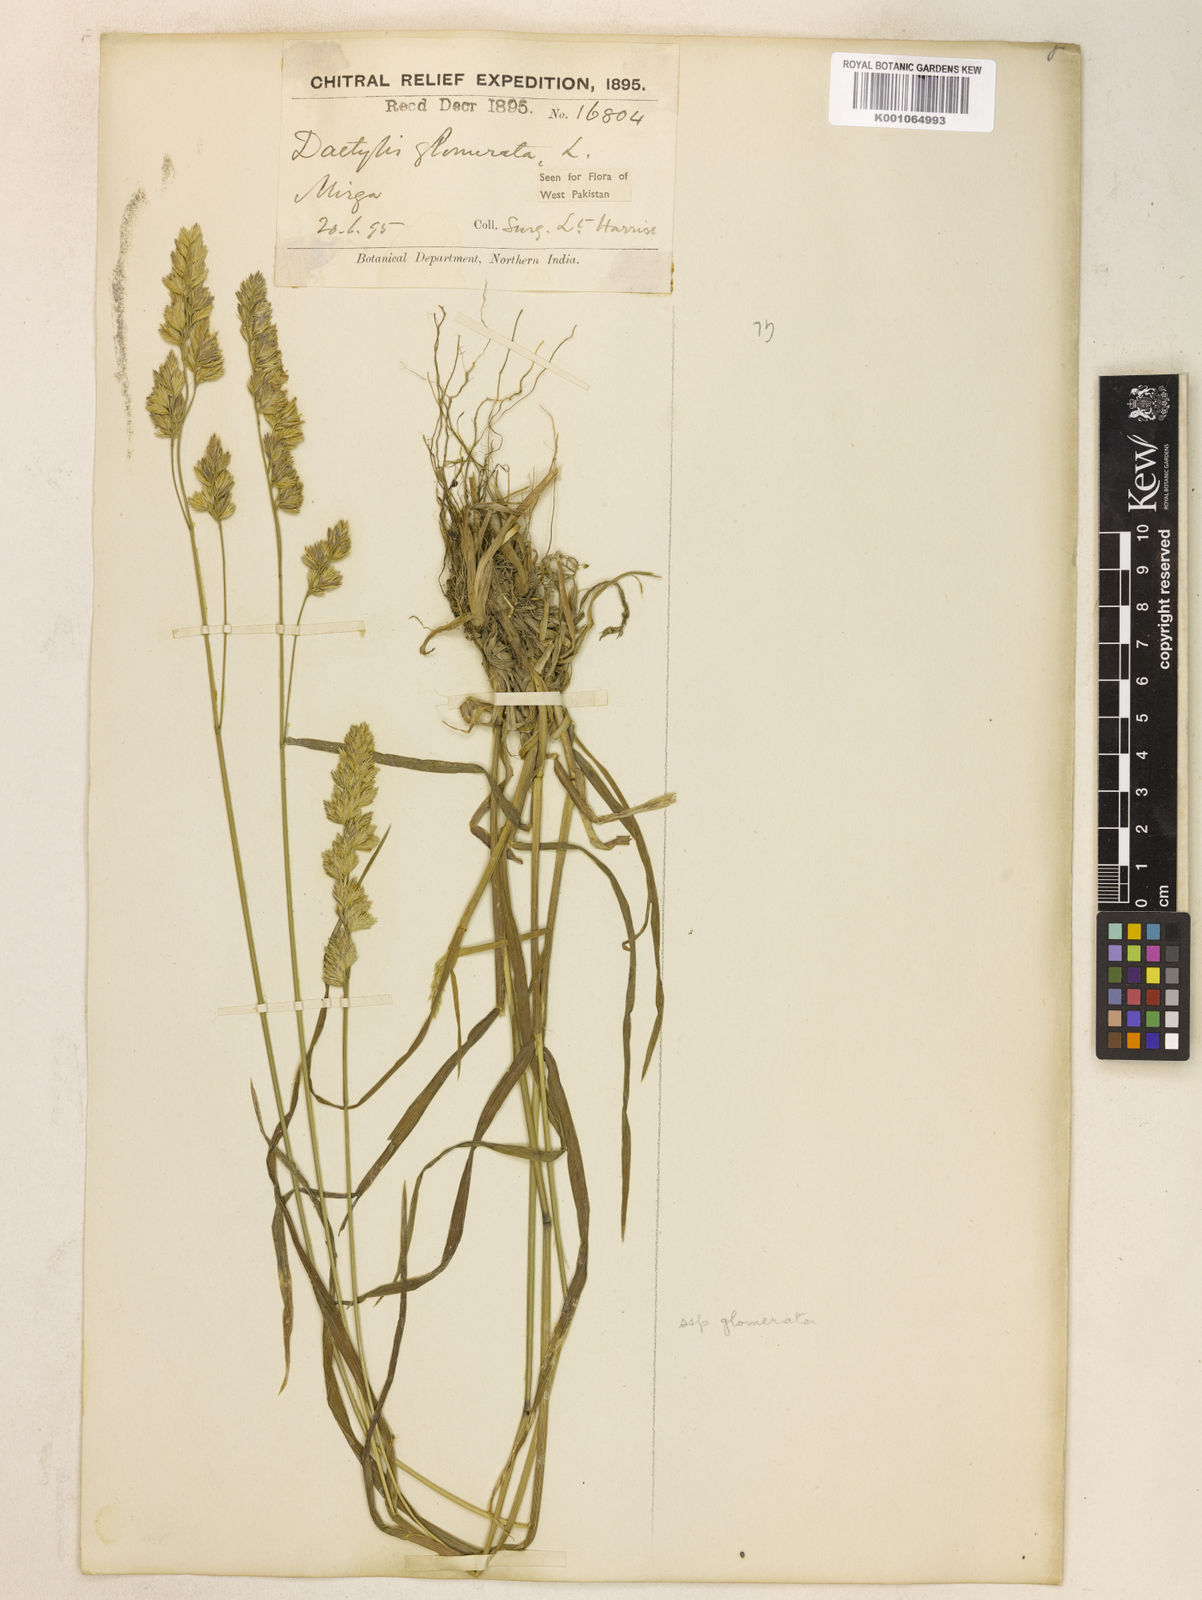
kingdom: Plantae
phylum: Tracheophyta
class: Liliopsida
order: Poales
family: Poaceae
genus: Dactylis
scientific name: Dactylis glomerata
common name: Orchardgrass
